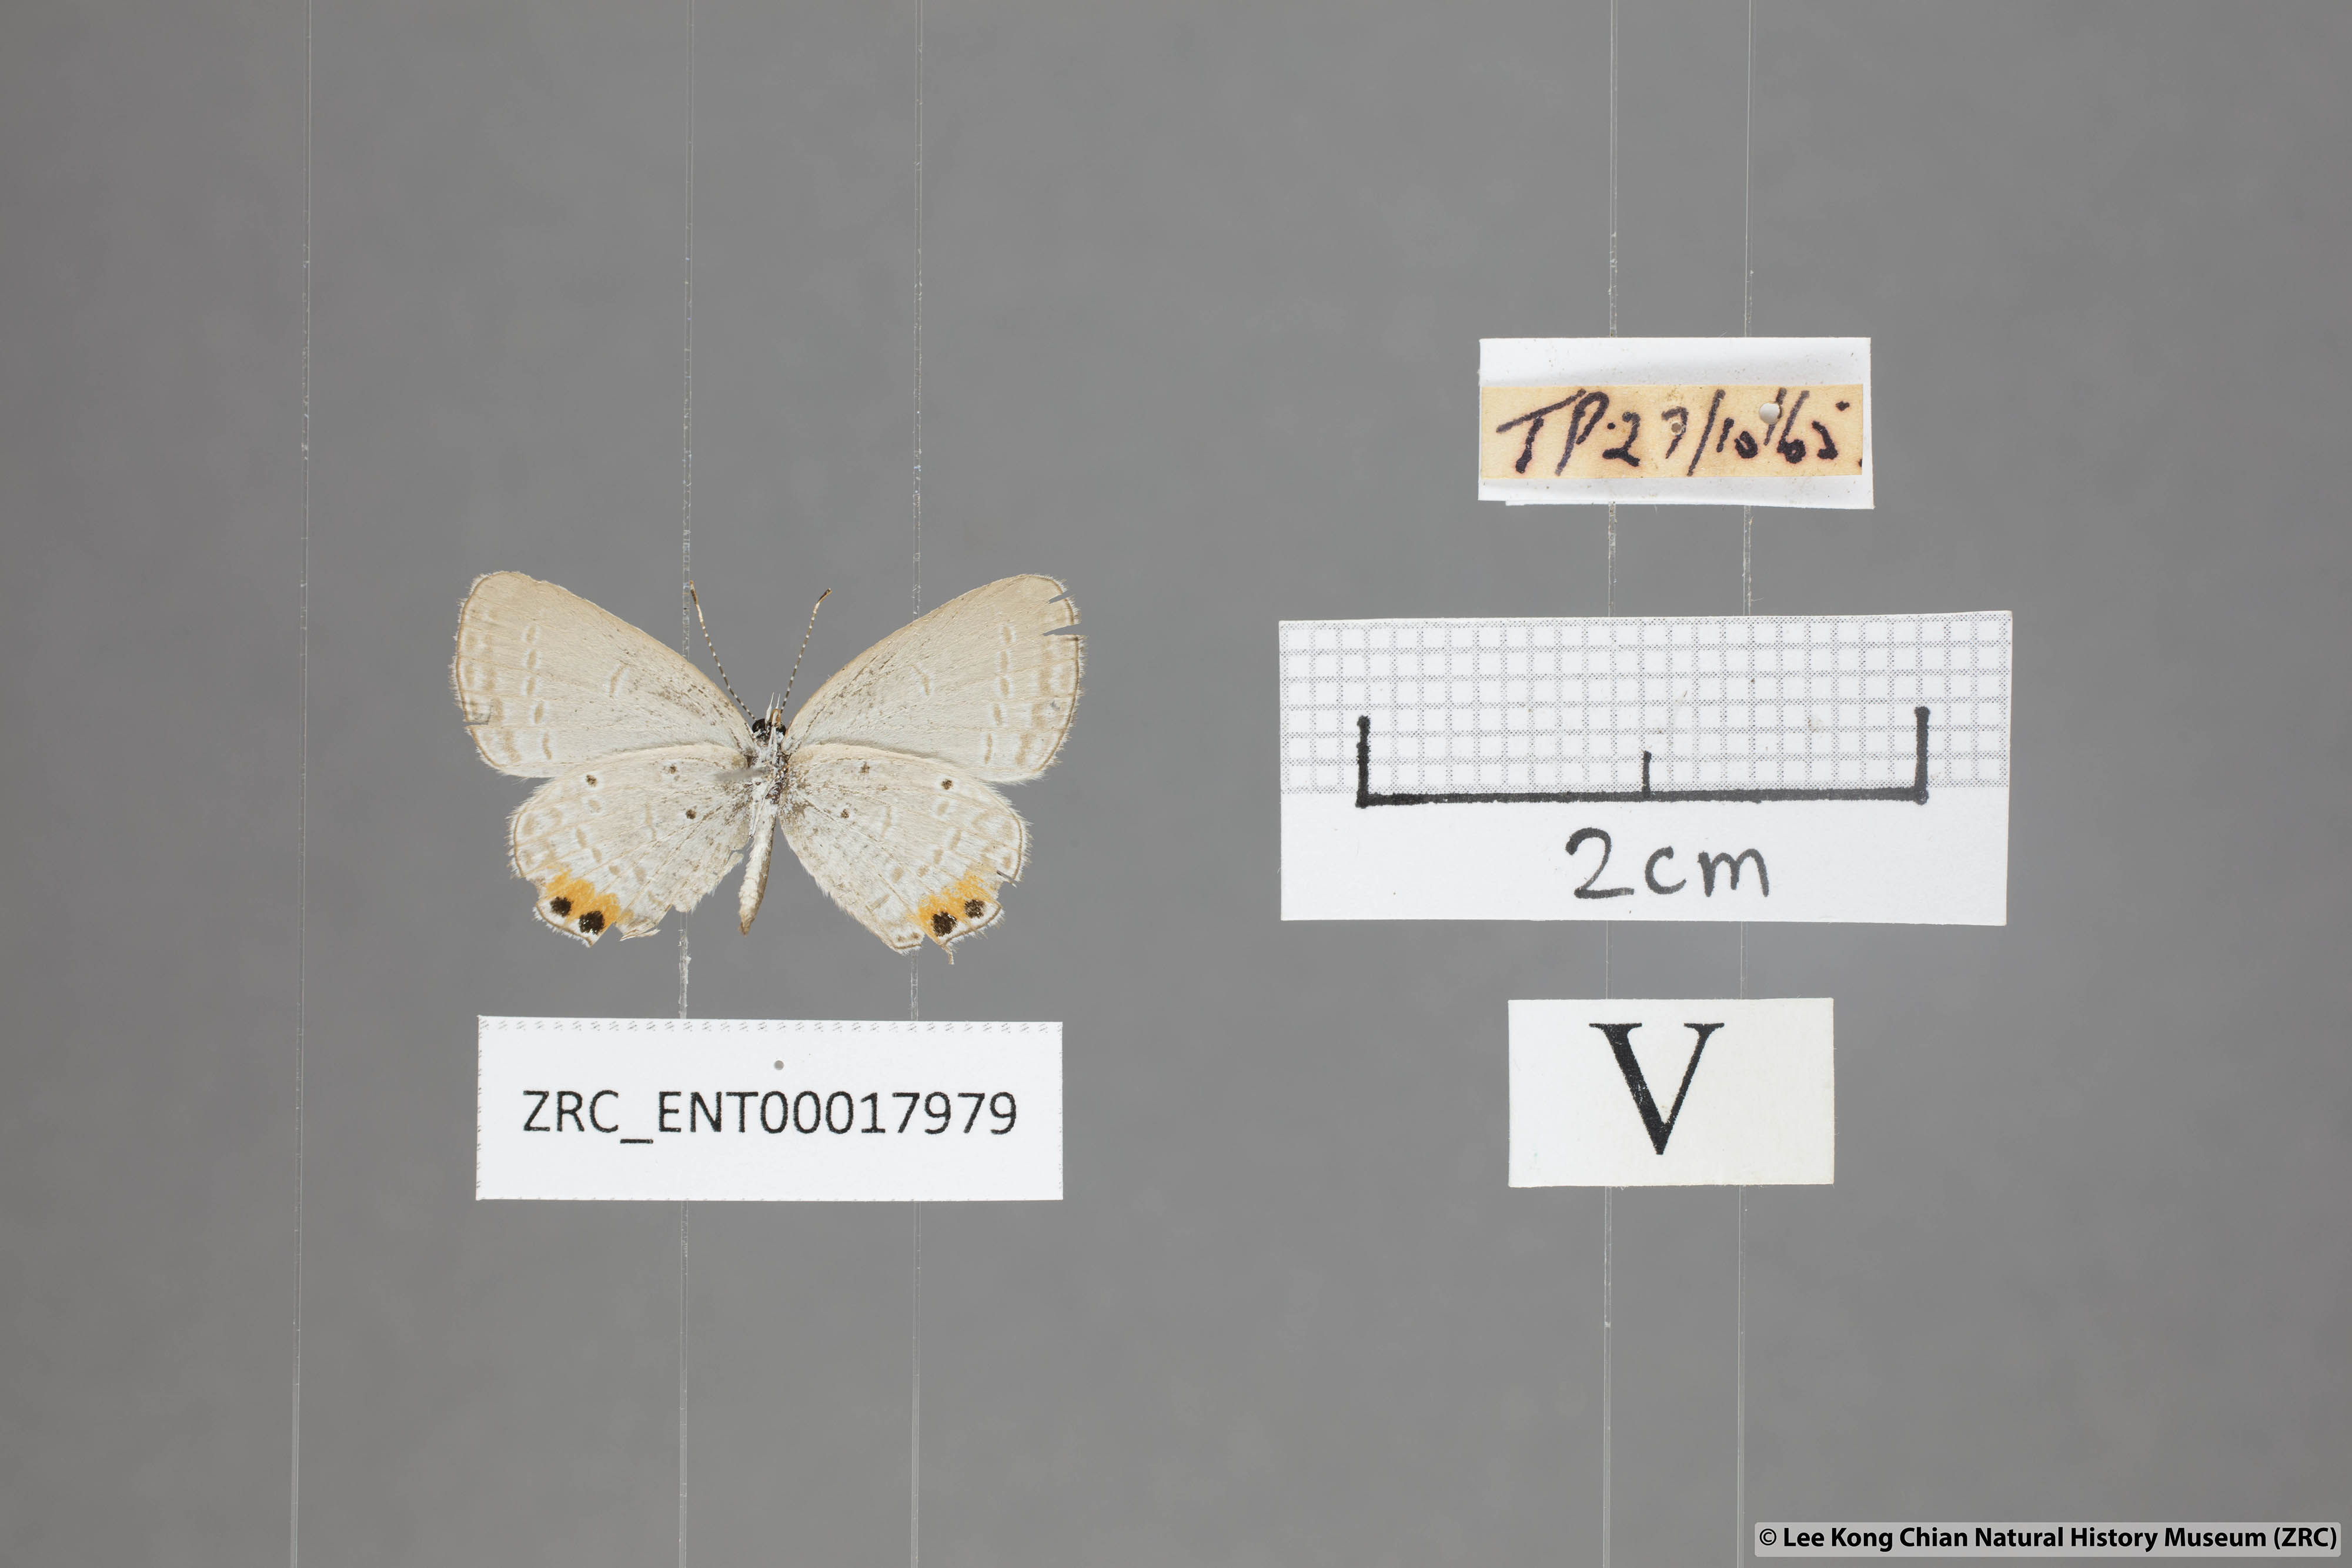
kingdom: Animalia
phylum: Arthropoda
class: Insecta
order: Lepidoptera
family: Lycaenidae
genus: Everes
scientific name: Everes lacturnus
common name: Orange-tipped pea-blue
